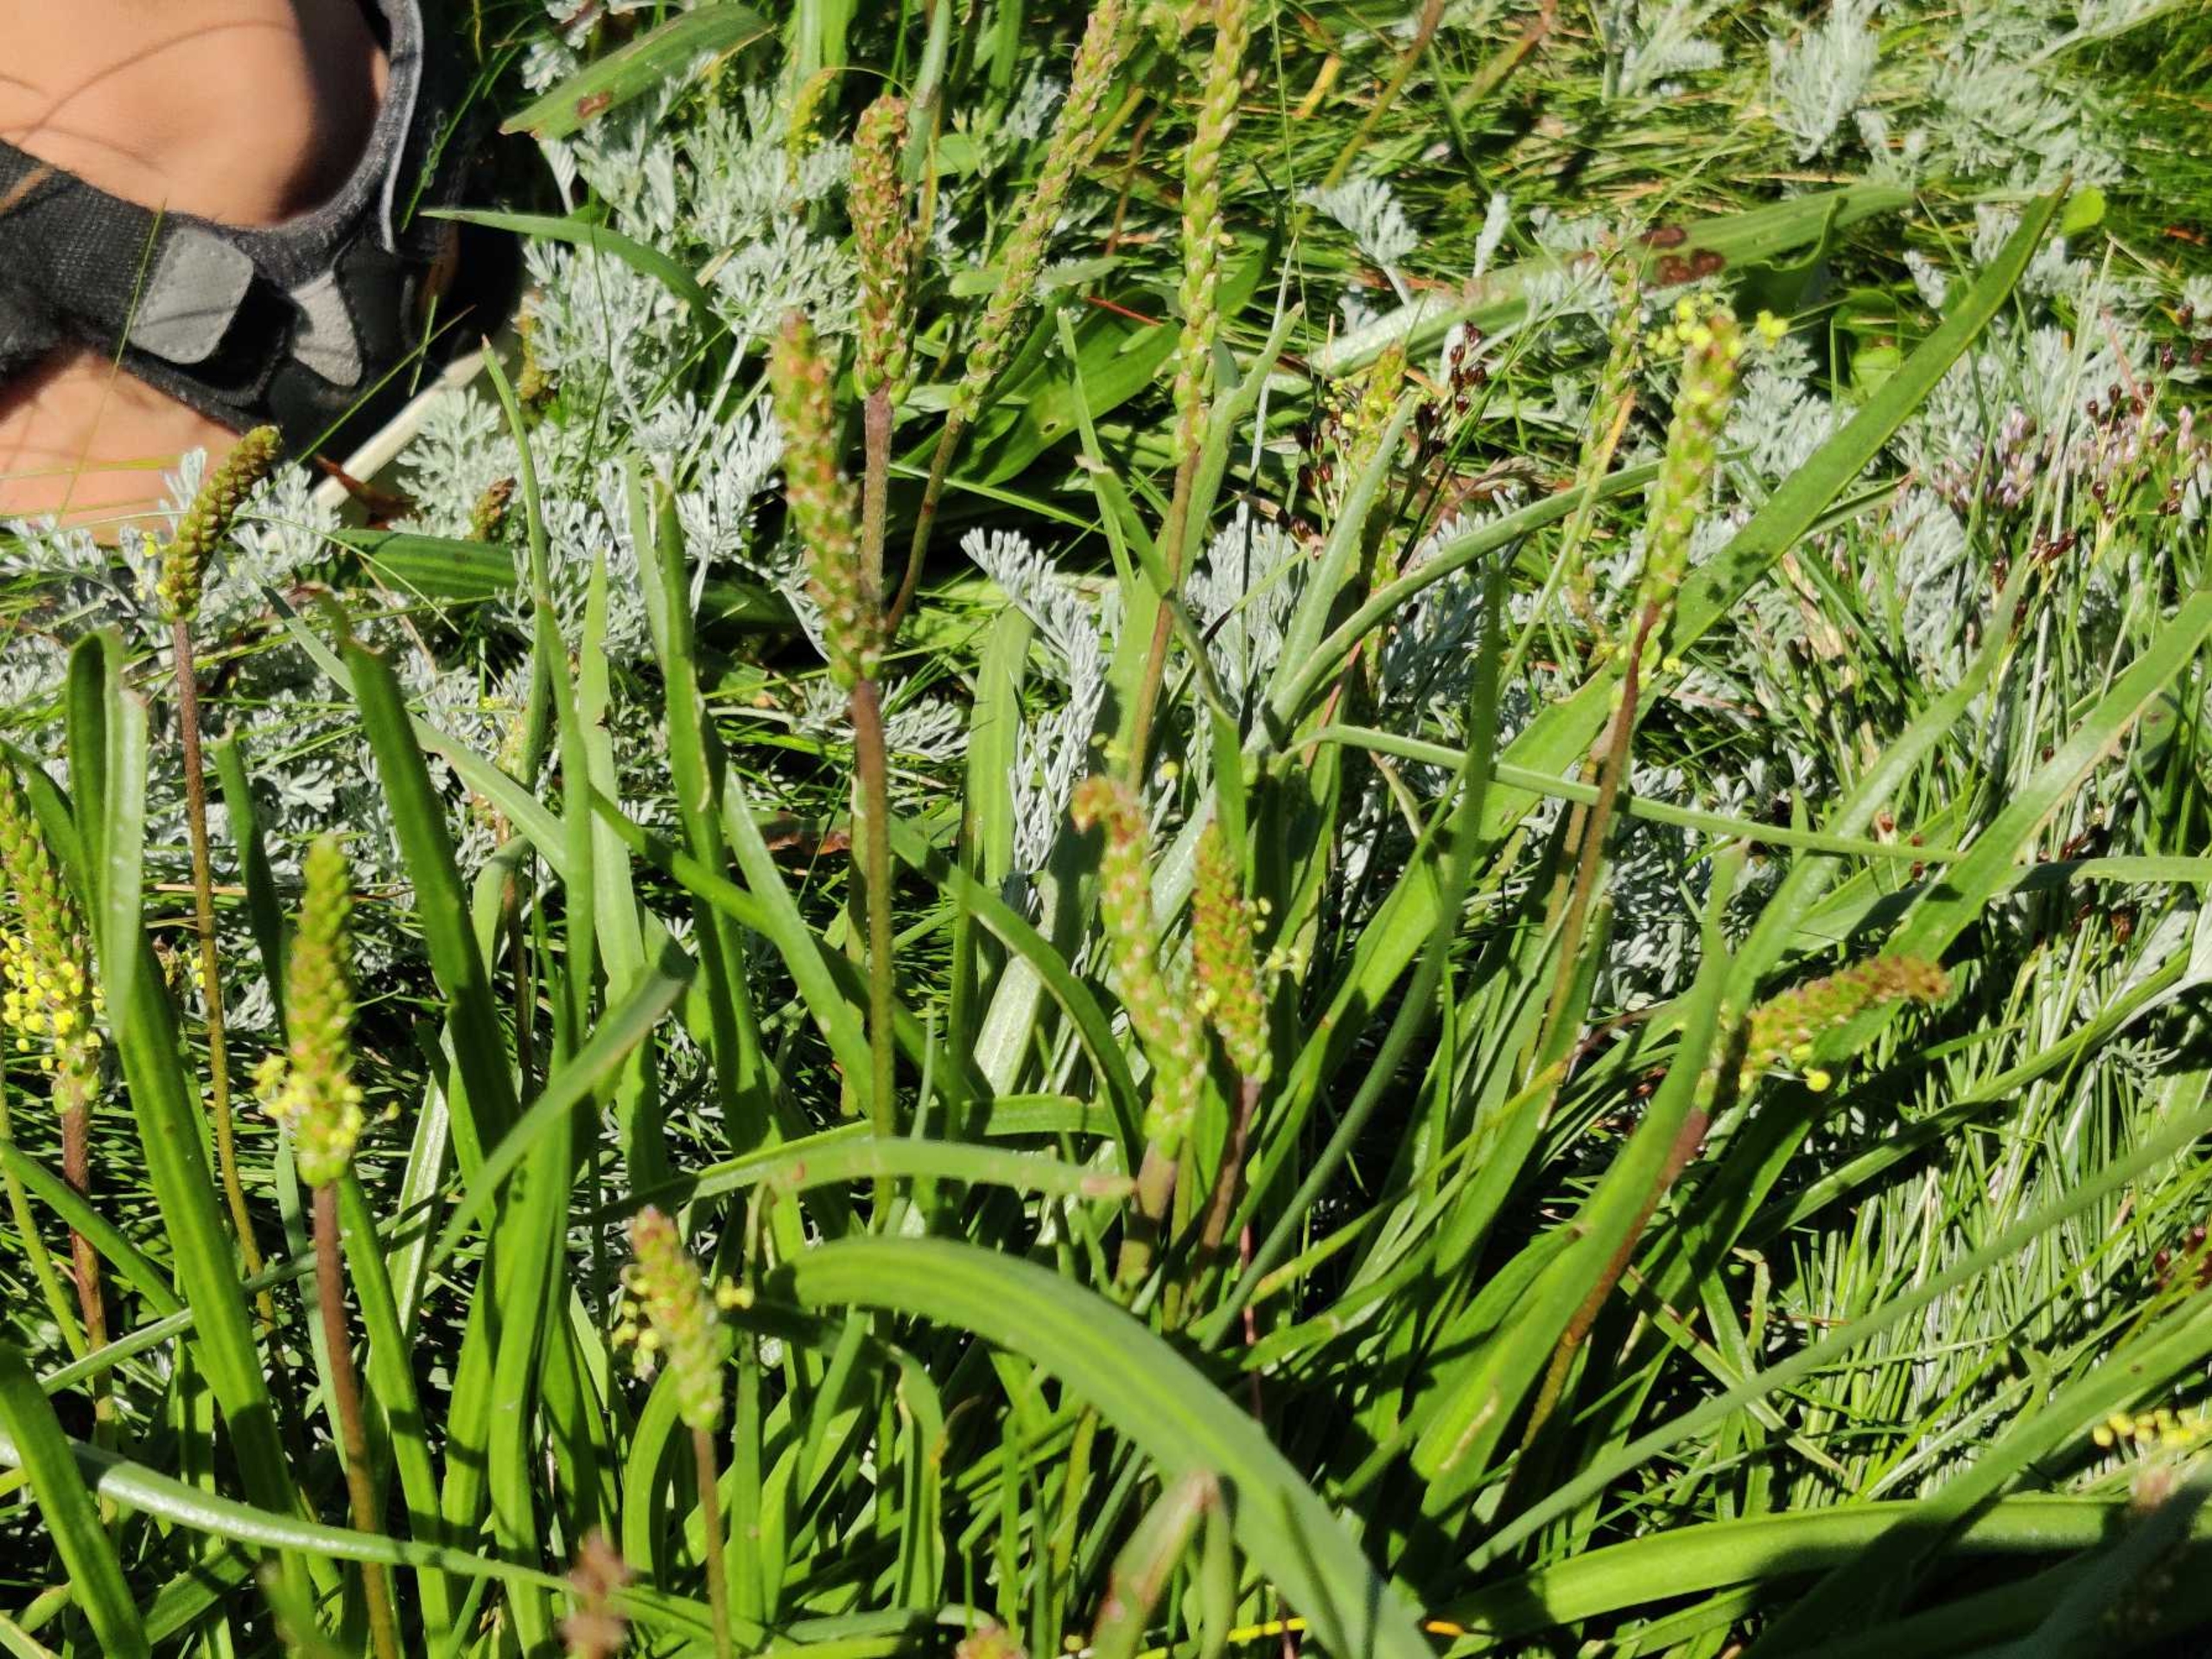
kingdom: Plantae
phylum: Tracheophyta
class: Magnoliopsida
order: Lamiales
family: Plantaginaceae
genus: Plantago
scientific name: Plantago maritima
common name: Strand-vejbred
